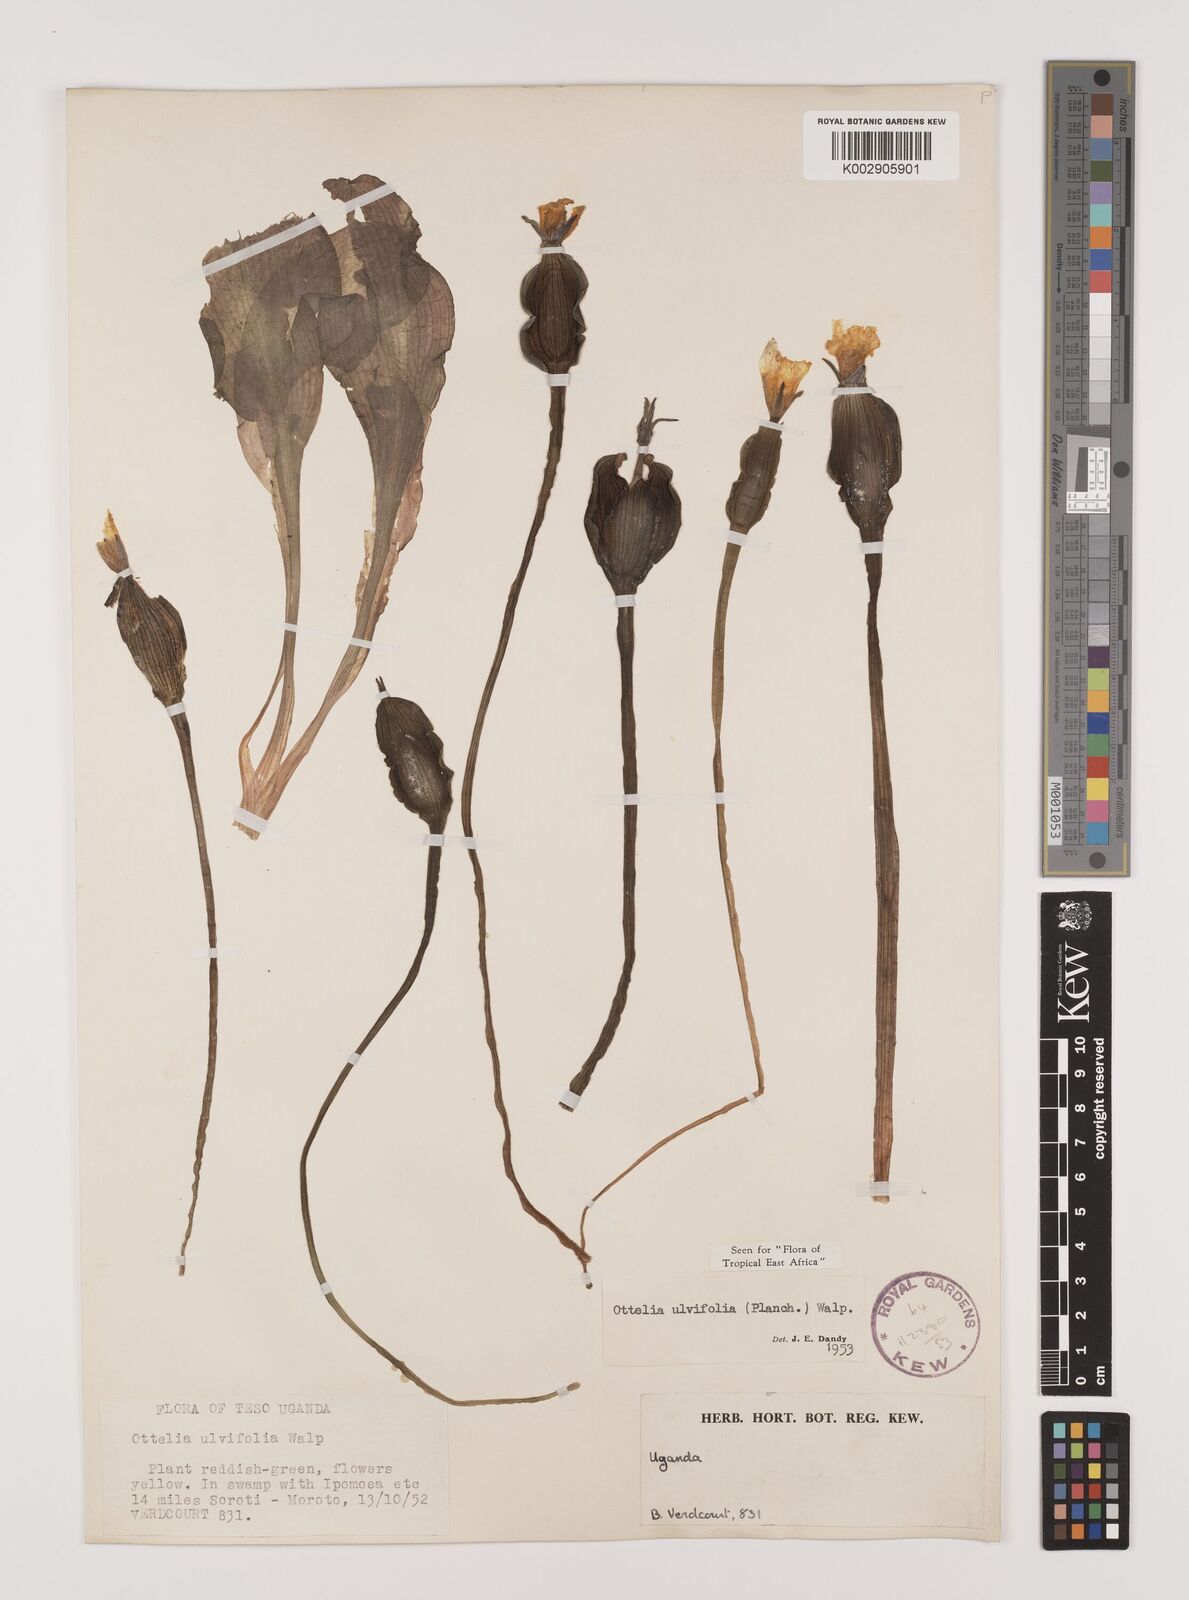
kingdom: Plantae
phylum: Tracheophyta
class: Liliopsida
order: Alismatales
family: Hydrocharitaceae
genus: Ottelia
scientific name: Ottelia ulvifolia
